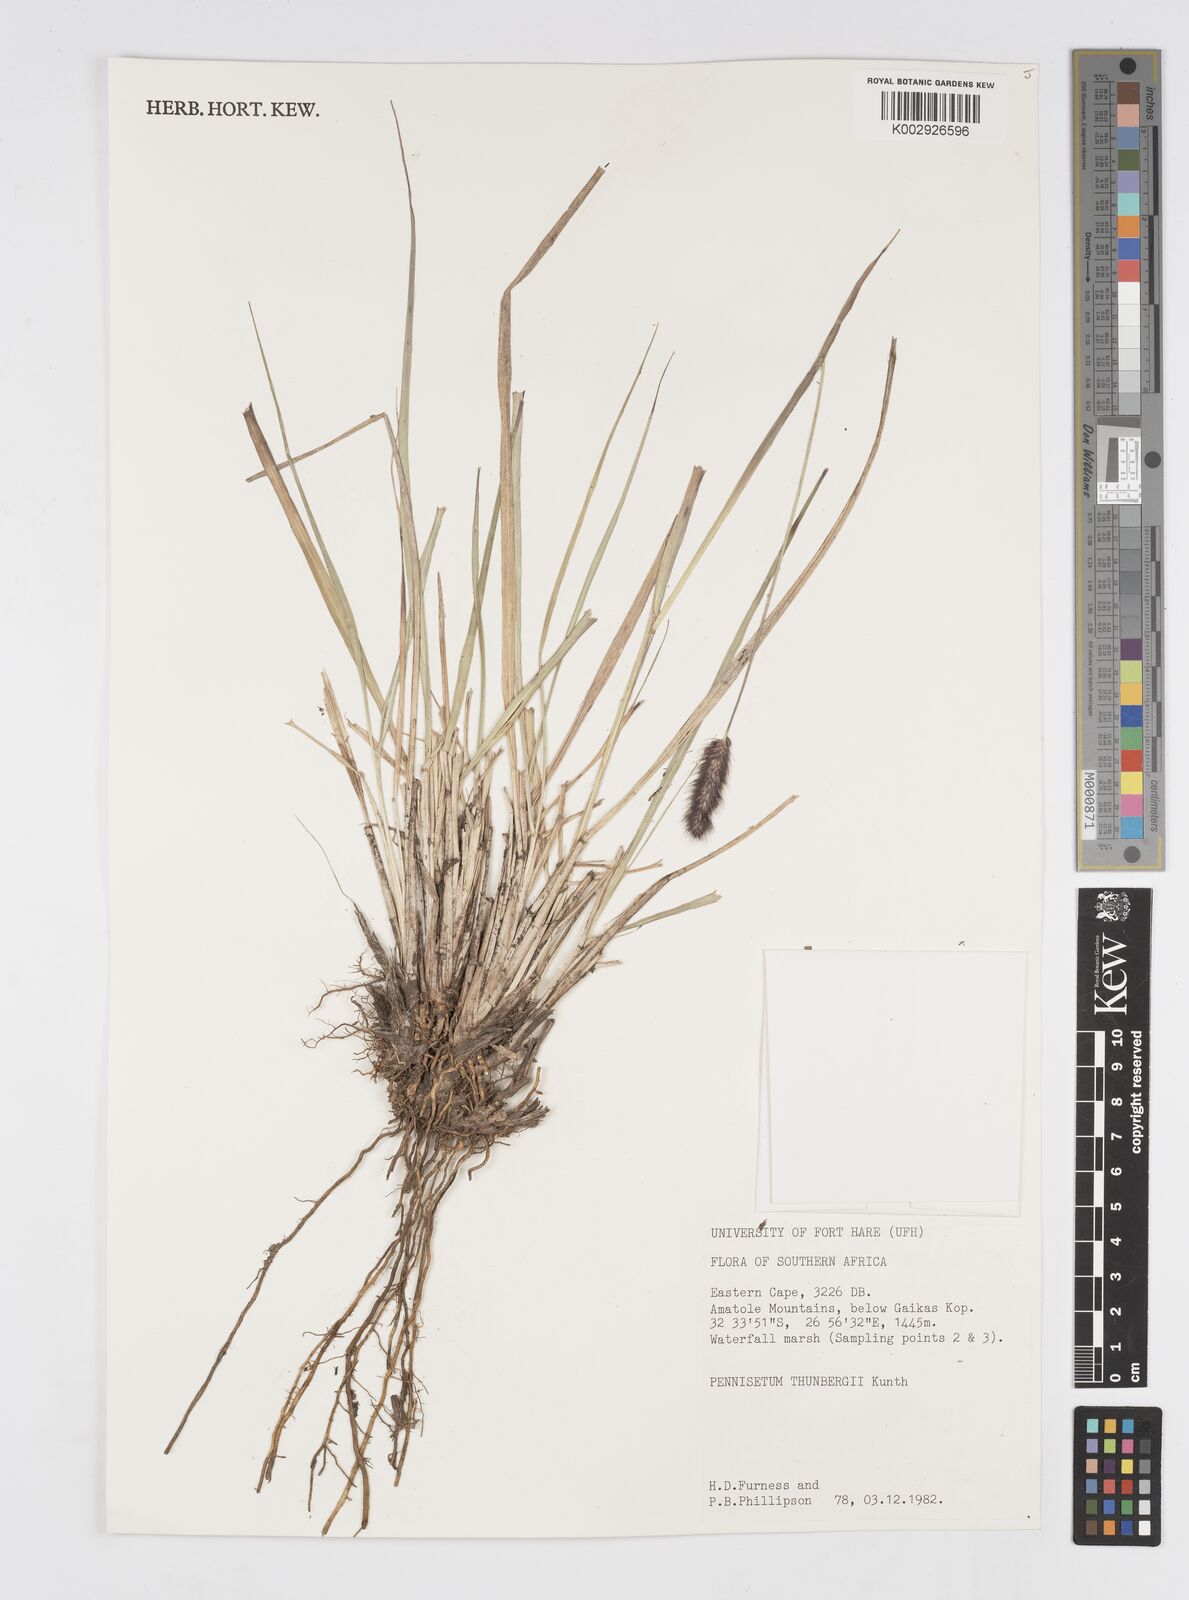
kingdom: Plantae
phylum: Tracheophyta
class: Liliopsida
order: Poales
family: Poaceae
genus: Cenchrus
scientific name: Cenchrus geniculatus
